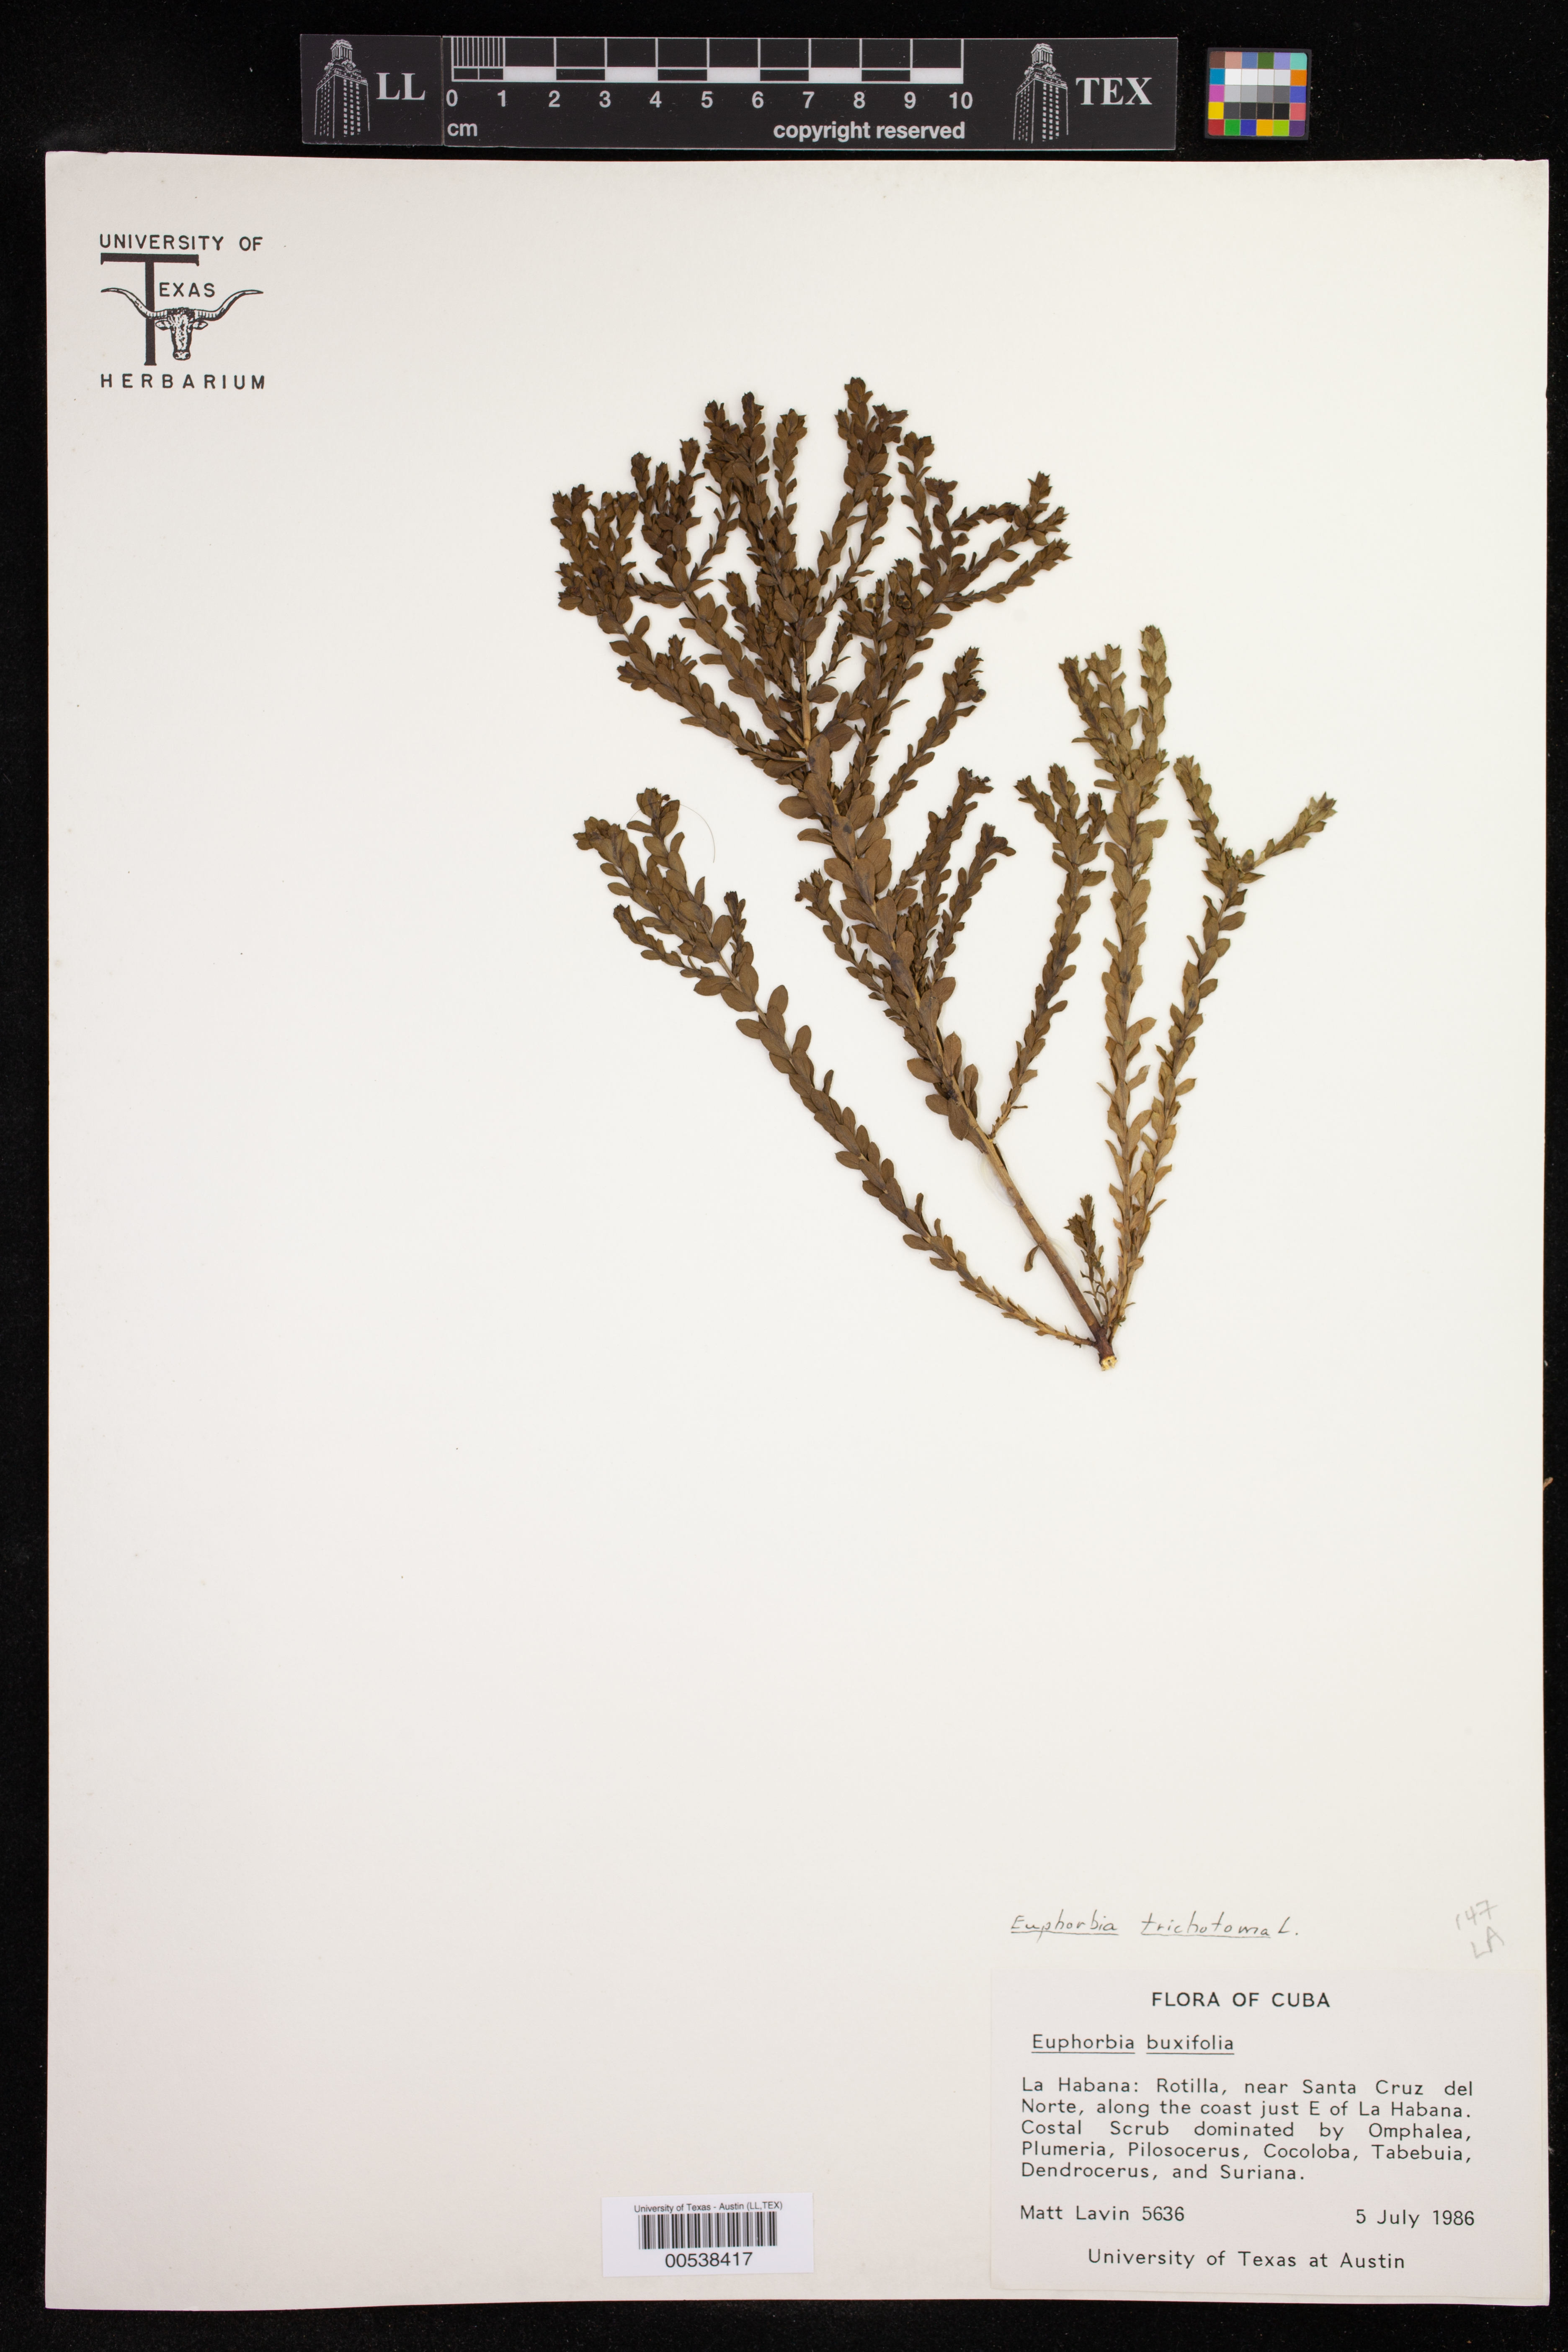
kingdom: Plantae
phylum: Tracheophyta
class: Magnoliopsida
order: Malpighiales
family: Euphorbiaceae
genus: Euphorbia
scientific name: Euphorbia trichotoma
